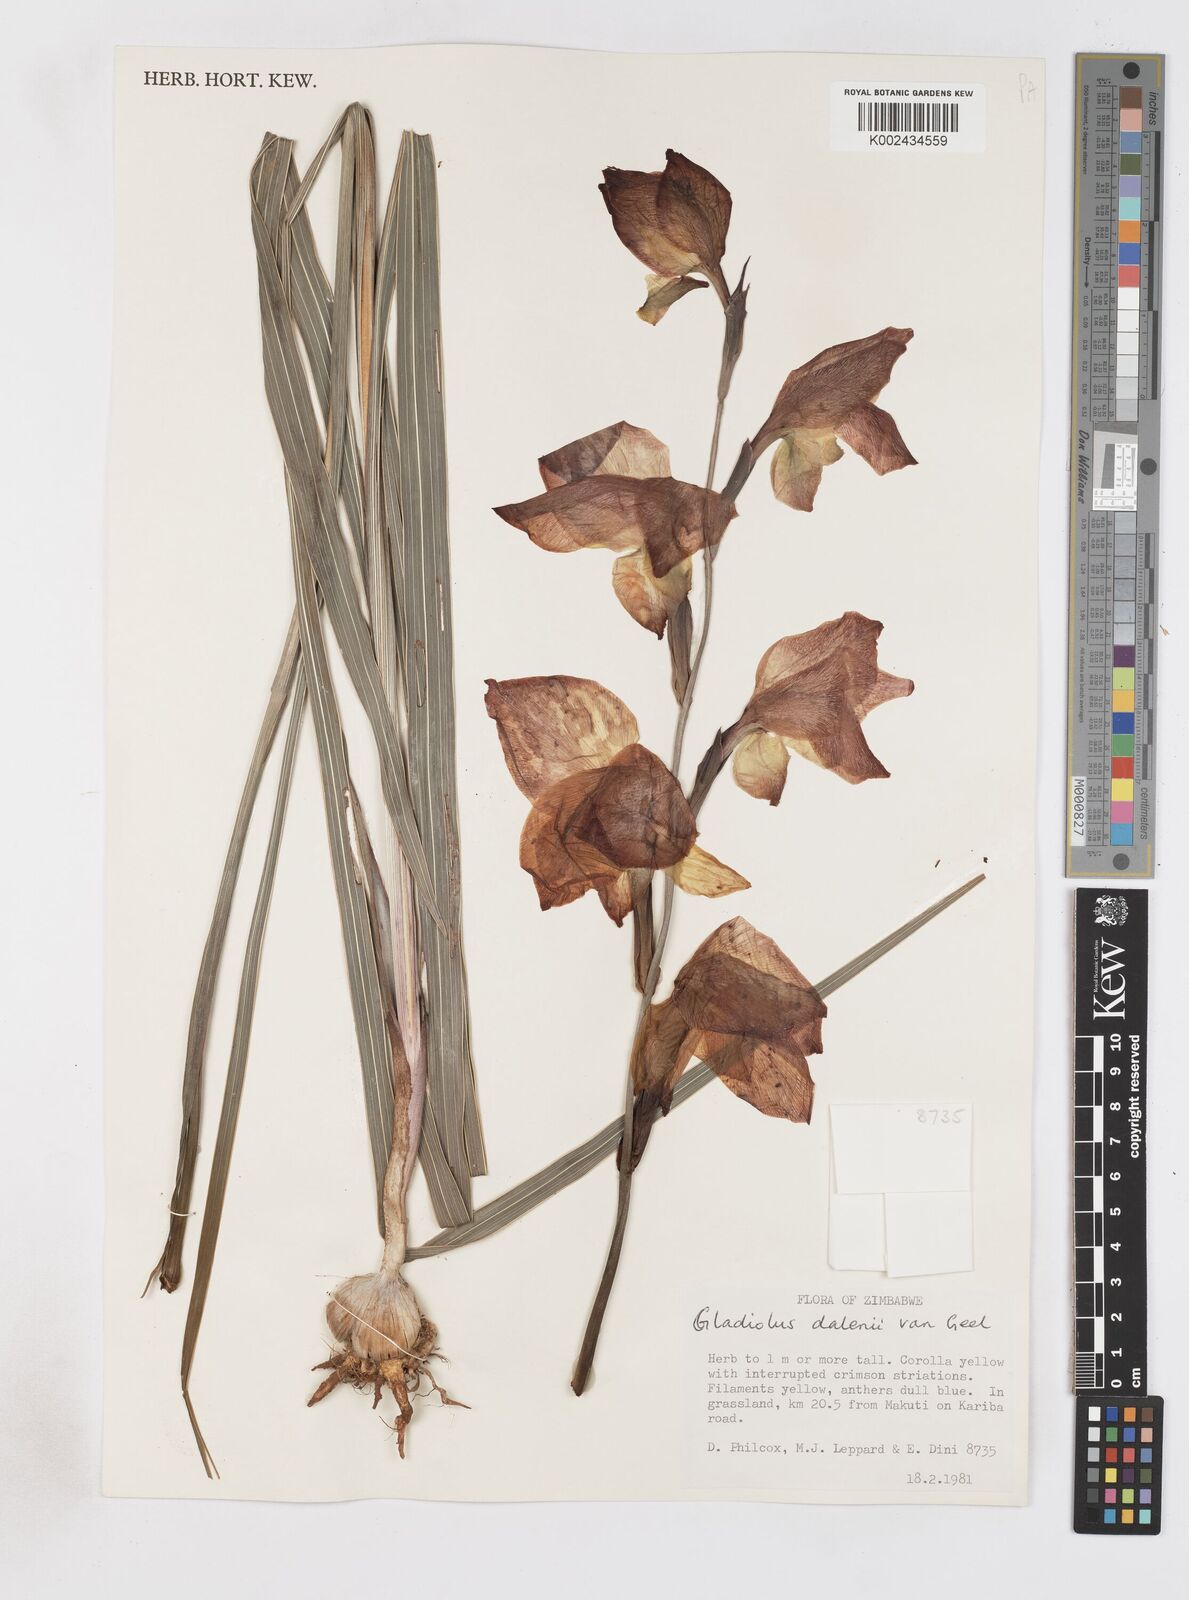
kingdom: Plantae
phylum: Tracheophyta
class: Liliopsida
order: Asparagales
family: Iridaceae
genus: Gladiolus
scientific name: Gladiolus dalenii
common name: Cornflag
